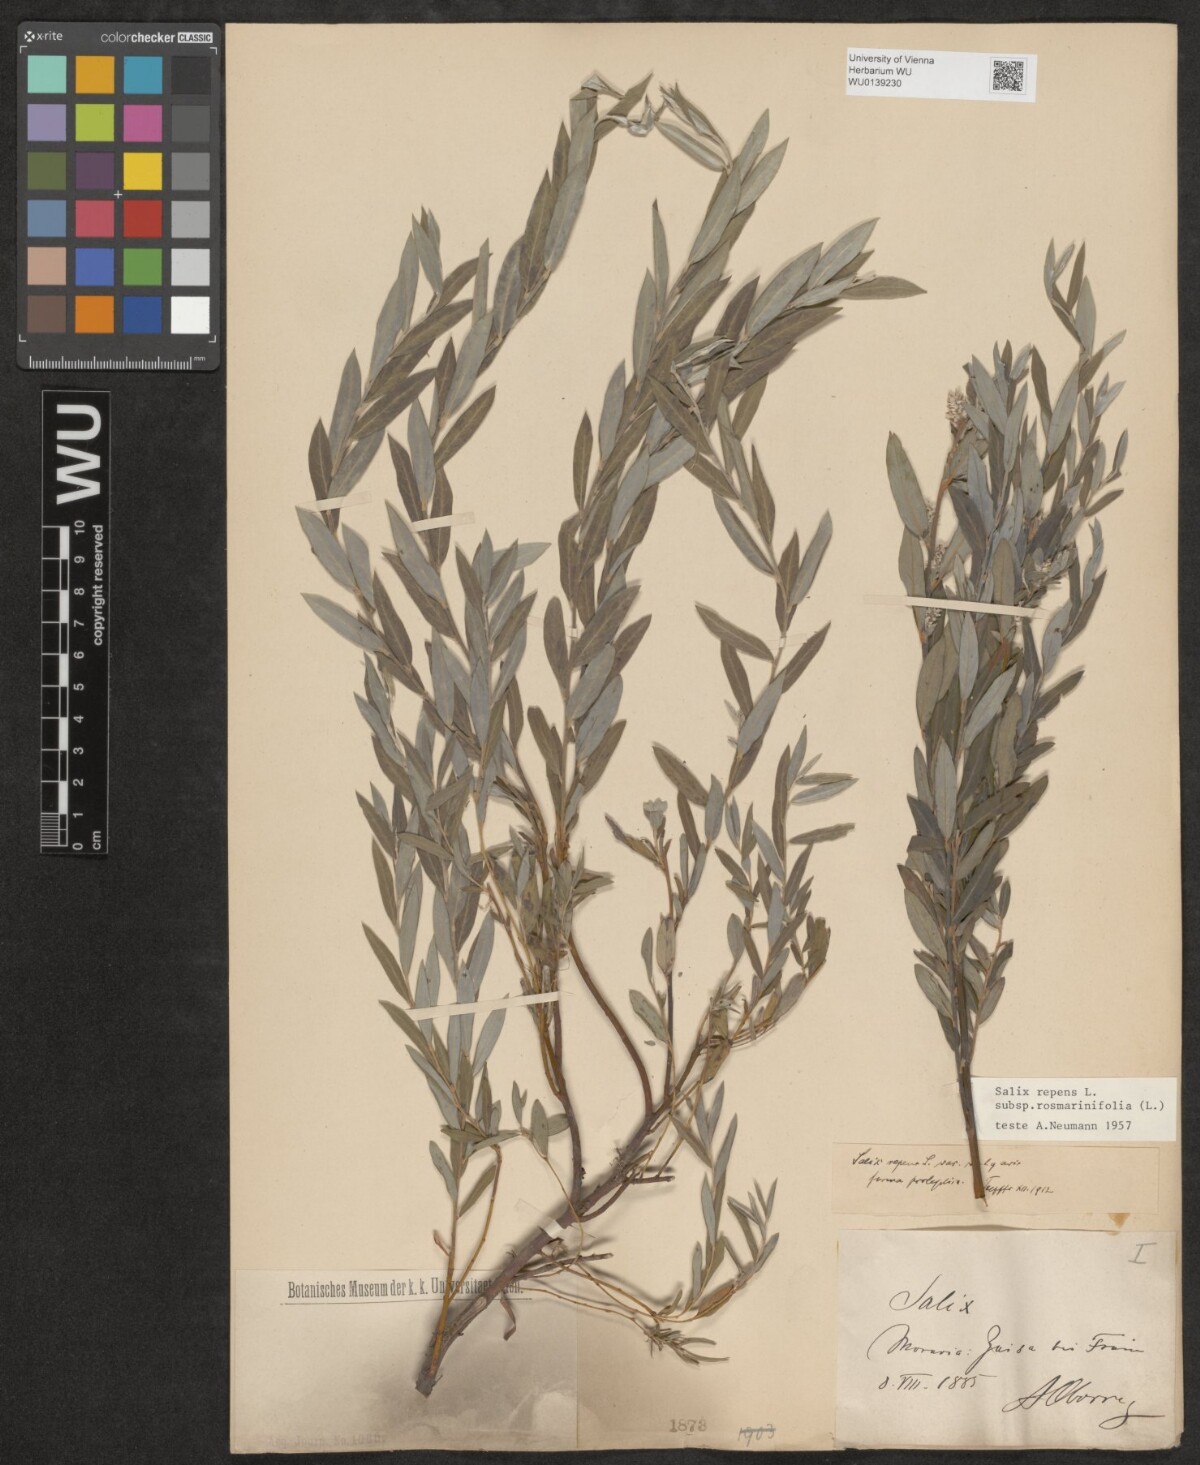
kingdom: Plantae
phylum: Tracheophyta
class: Magnoliopsida
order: Malpighiales
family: Salicaceae
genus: Salix
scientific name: Salix repens
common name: Creeping willow
